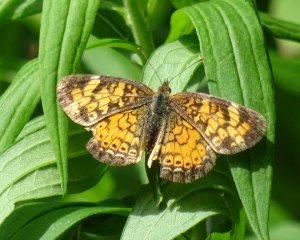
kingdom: Animalia
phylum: Arthropoda
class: Insecta
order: Lepidoptera
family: Nymphalidae
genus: Phyciodes
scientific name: Phyciodes tharos
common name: Northern Crescent
